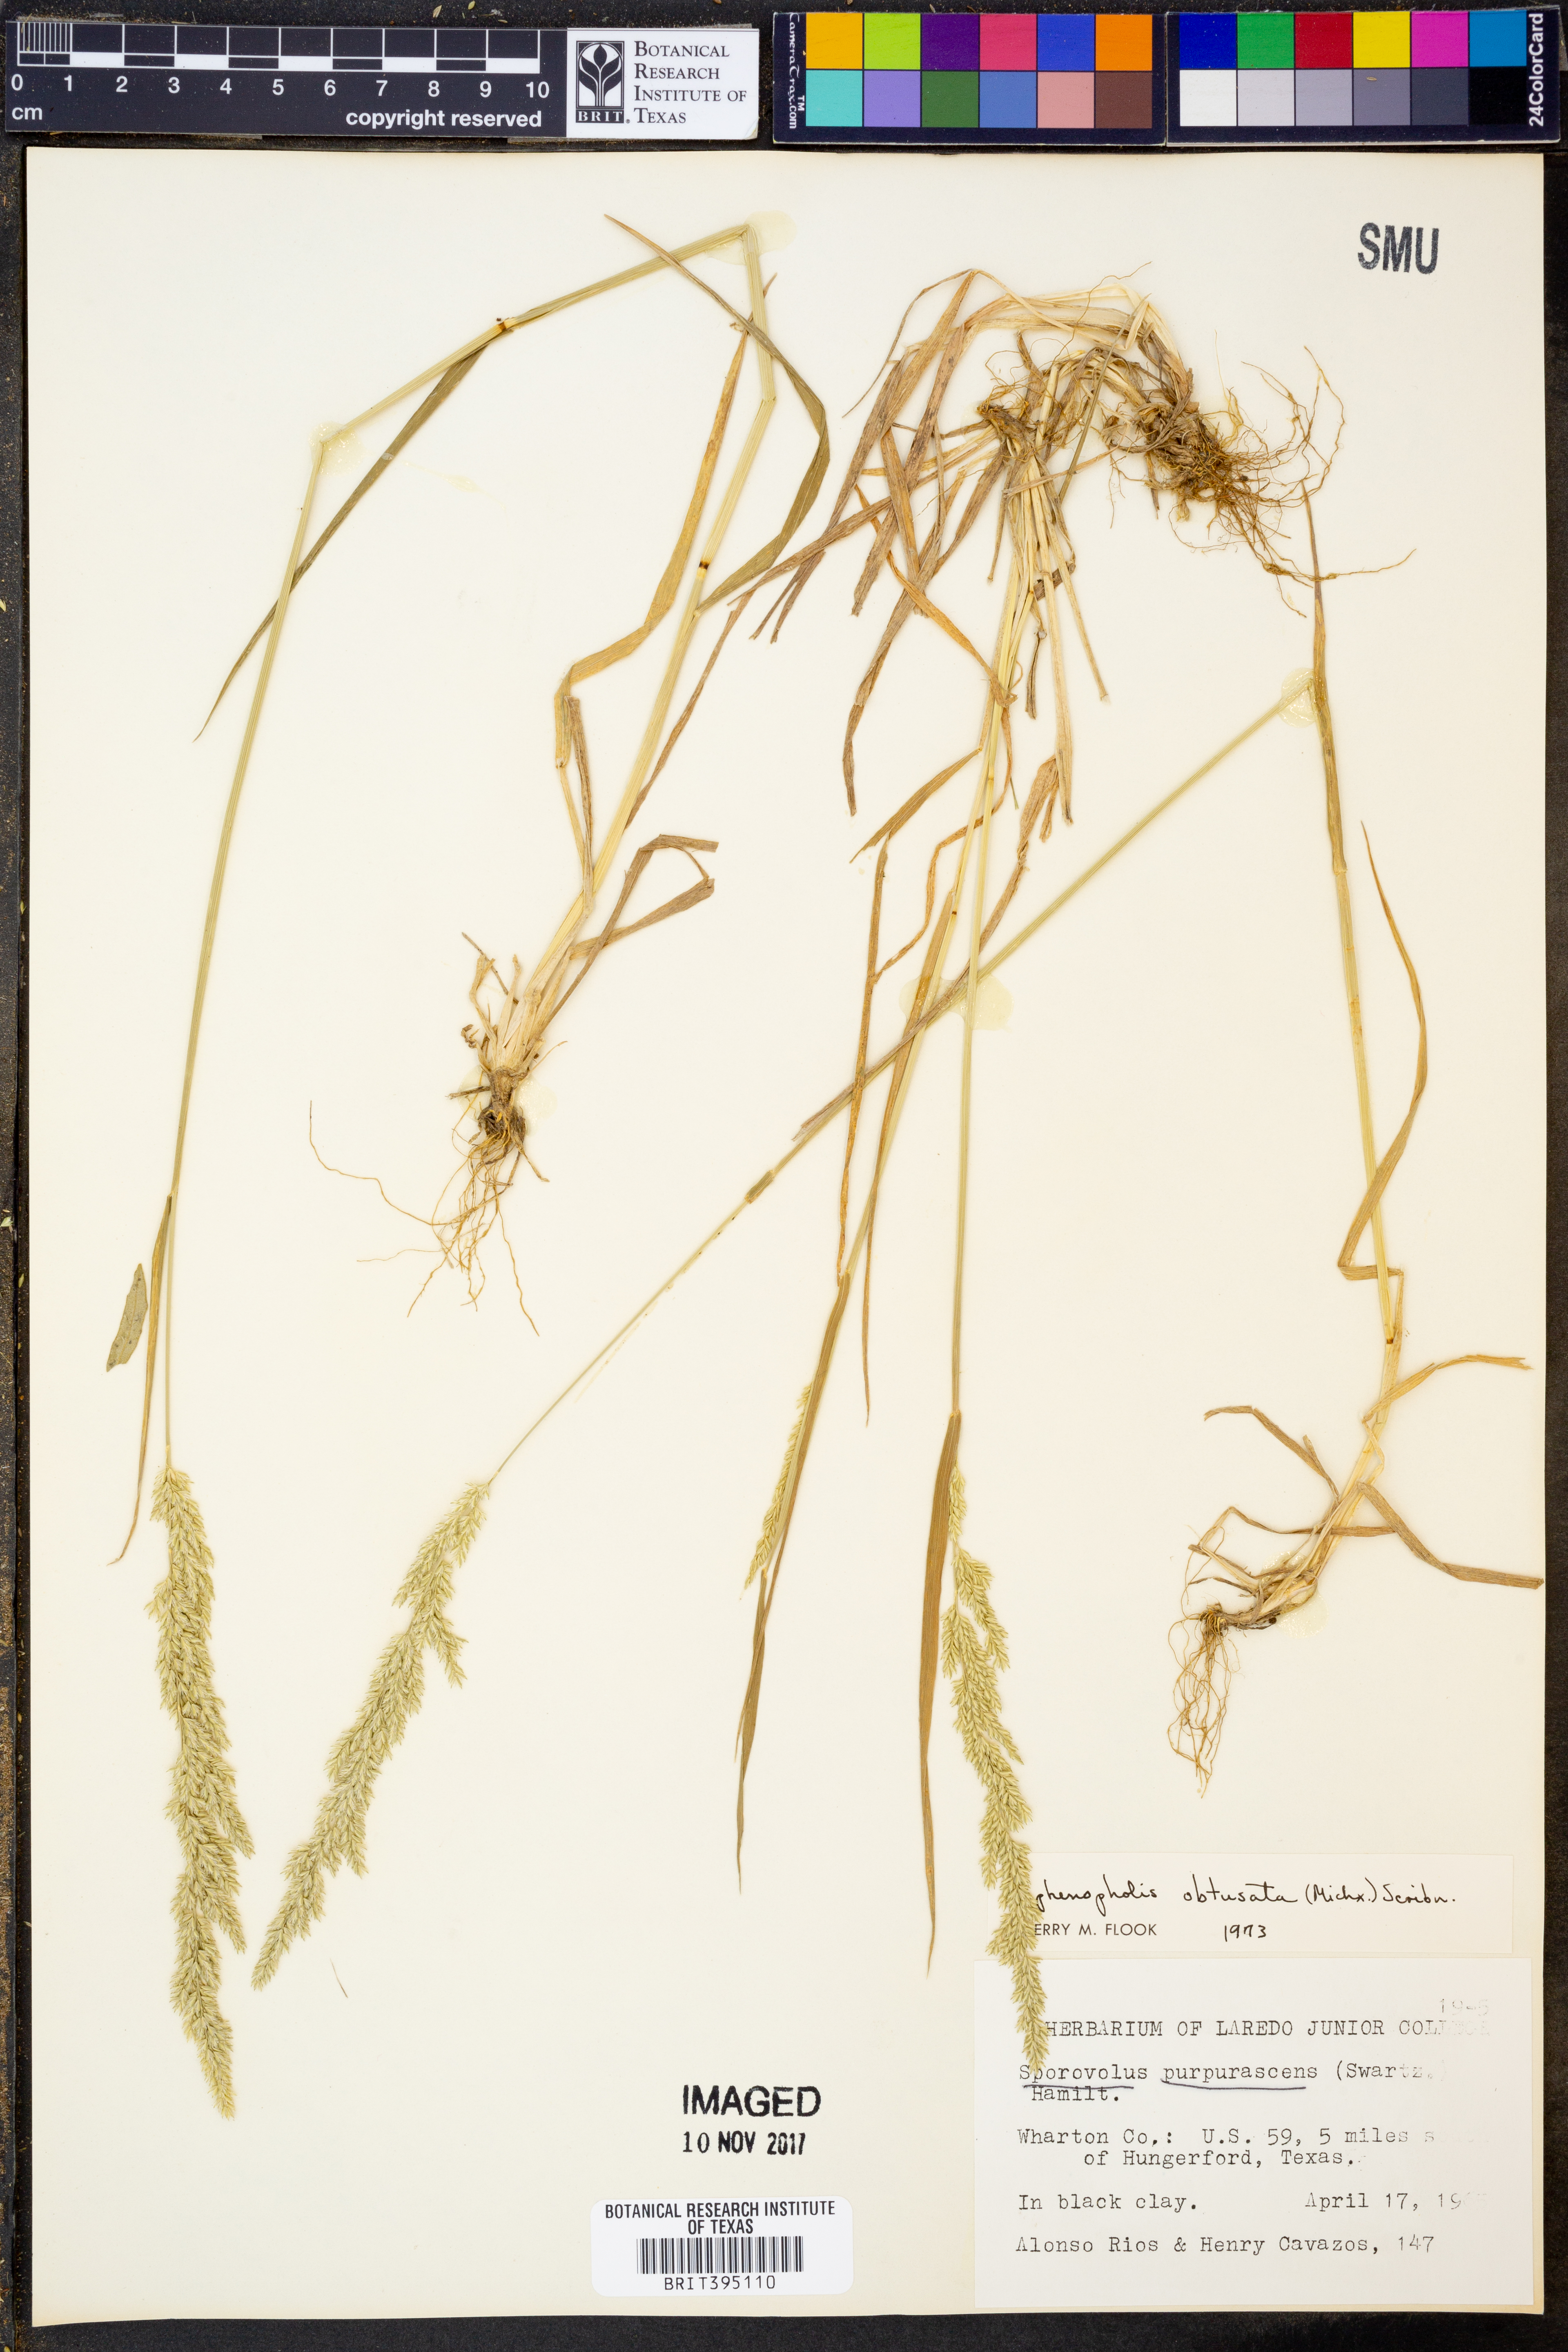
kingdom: Plantae
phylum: Tracheophyta
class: Liliopsida
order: Poales
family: Poaceae
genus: Sphenopholis
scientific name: Sphenopholis obtusata
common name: Prairie grass
